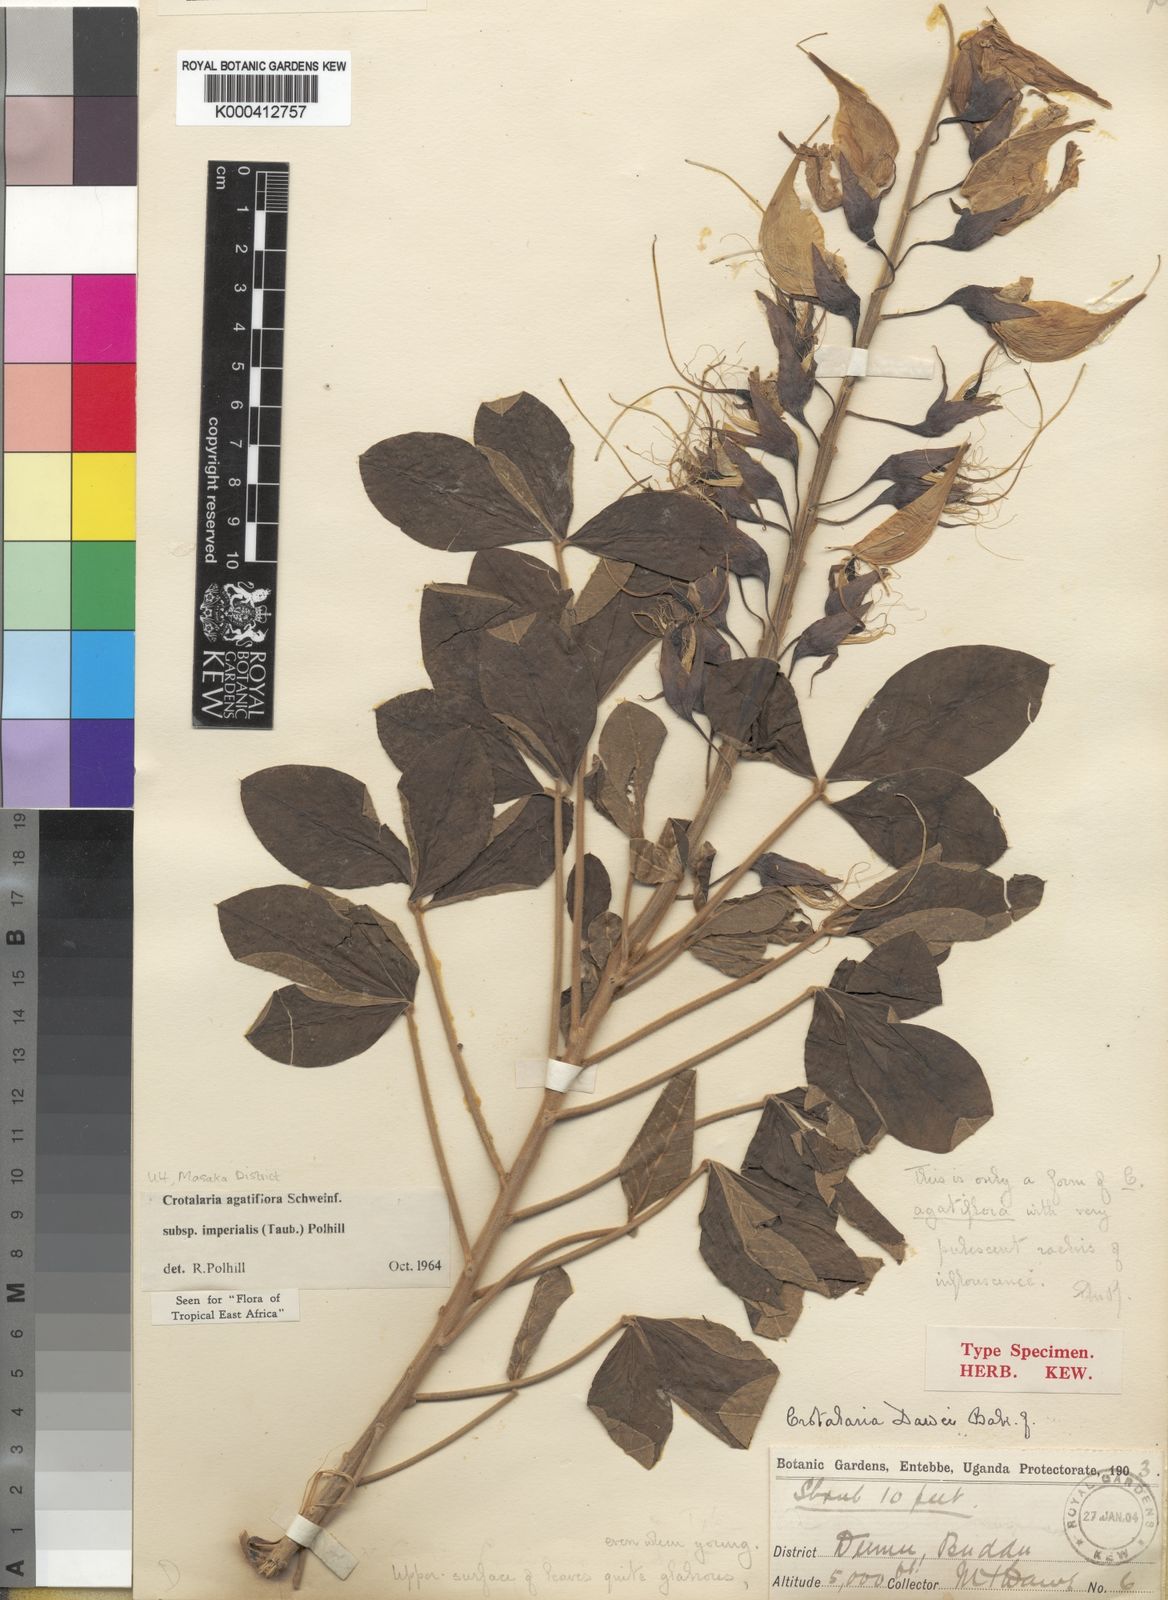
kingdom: Plantae
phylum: Tracheophyta
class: Magnoliopsida
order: Fabales
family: Fabaceae
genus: Crotalaria
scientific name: Crotalaria
